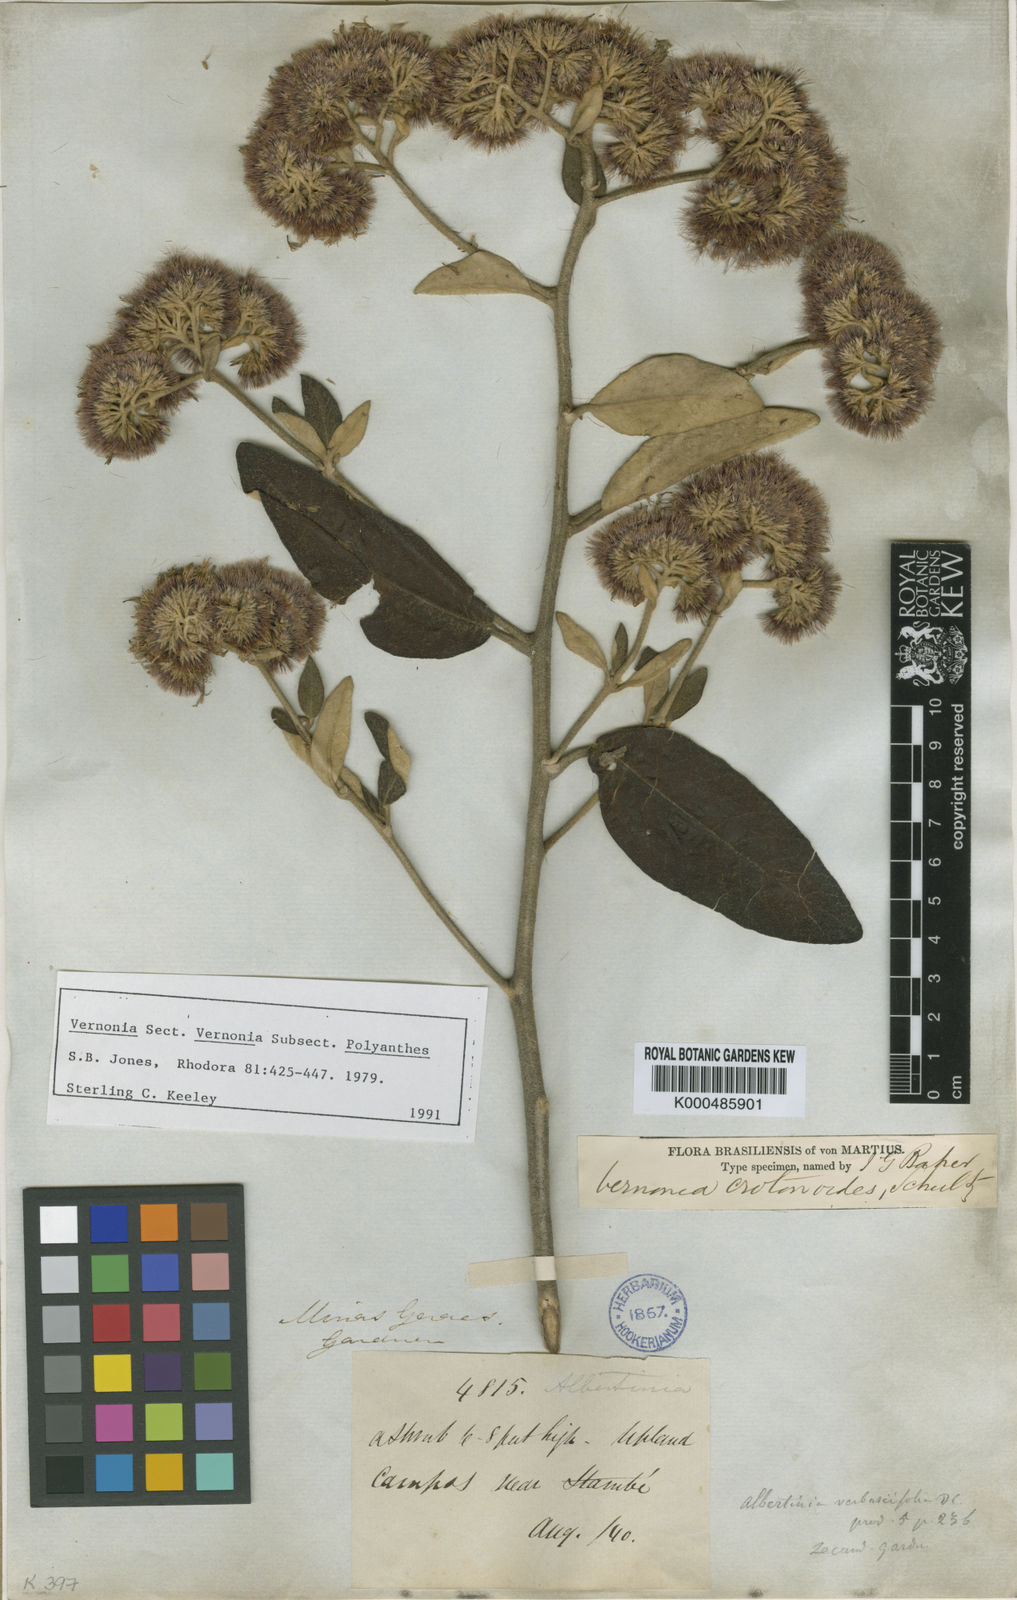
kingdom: Plantae
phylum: Tracheophyta
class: Magnoliopsida
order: Asterales
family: Asteraceae
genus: Chrysolaena
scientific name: Chrysolaena verbascifolia
